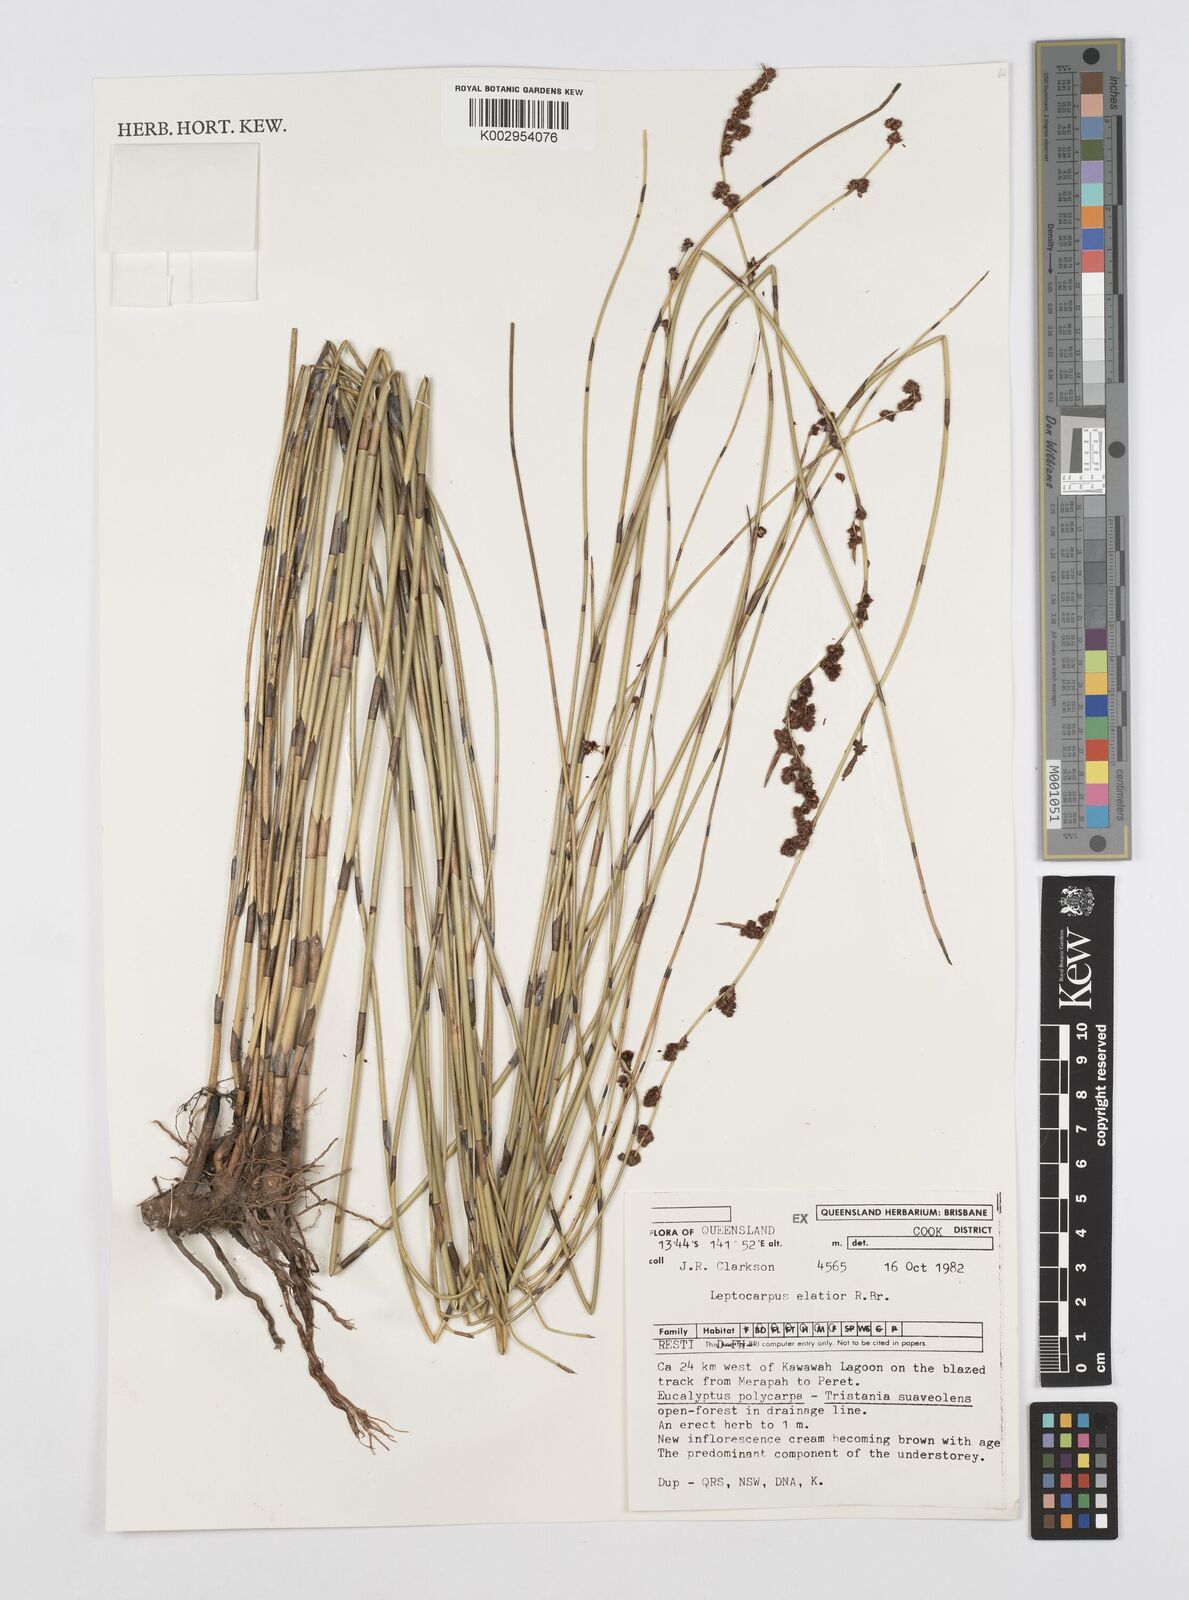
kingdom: Plantae
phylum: Tracheophyta
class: Liliopsida
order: Poales
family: Restionaceae
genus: Dapsilanthus
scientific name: Dapsilanthus elatior
